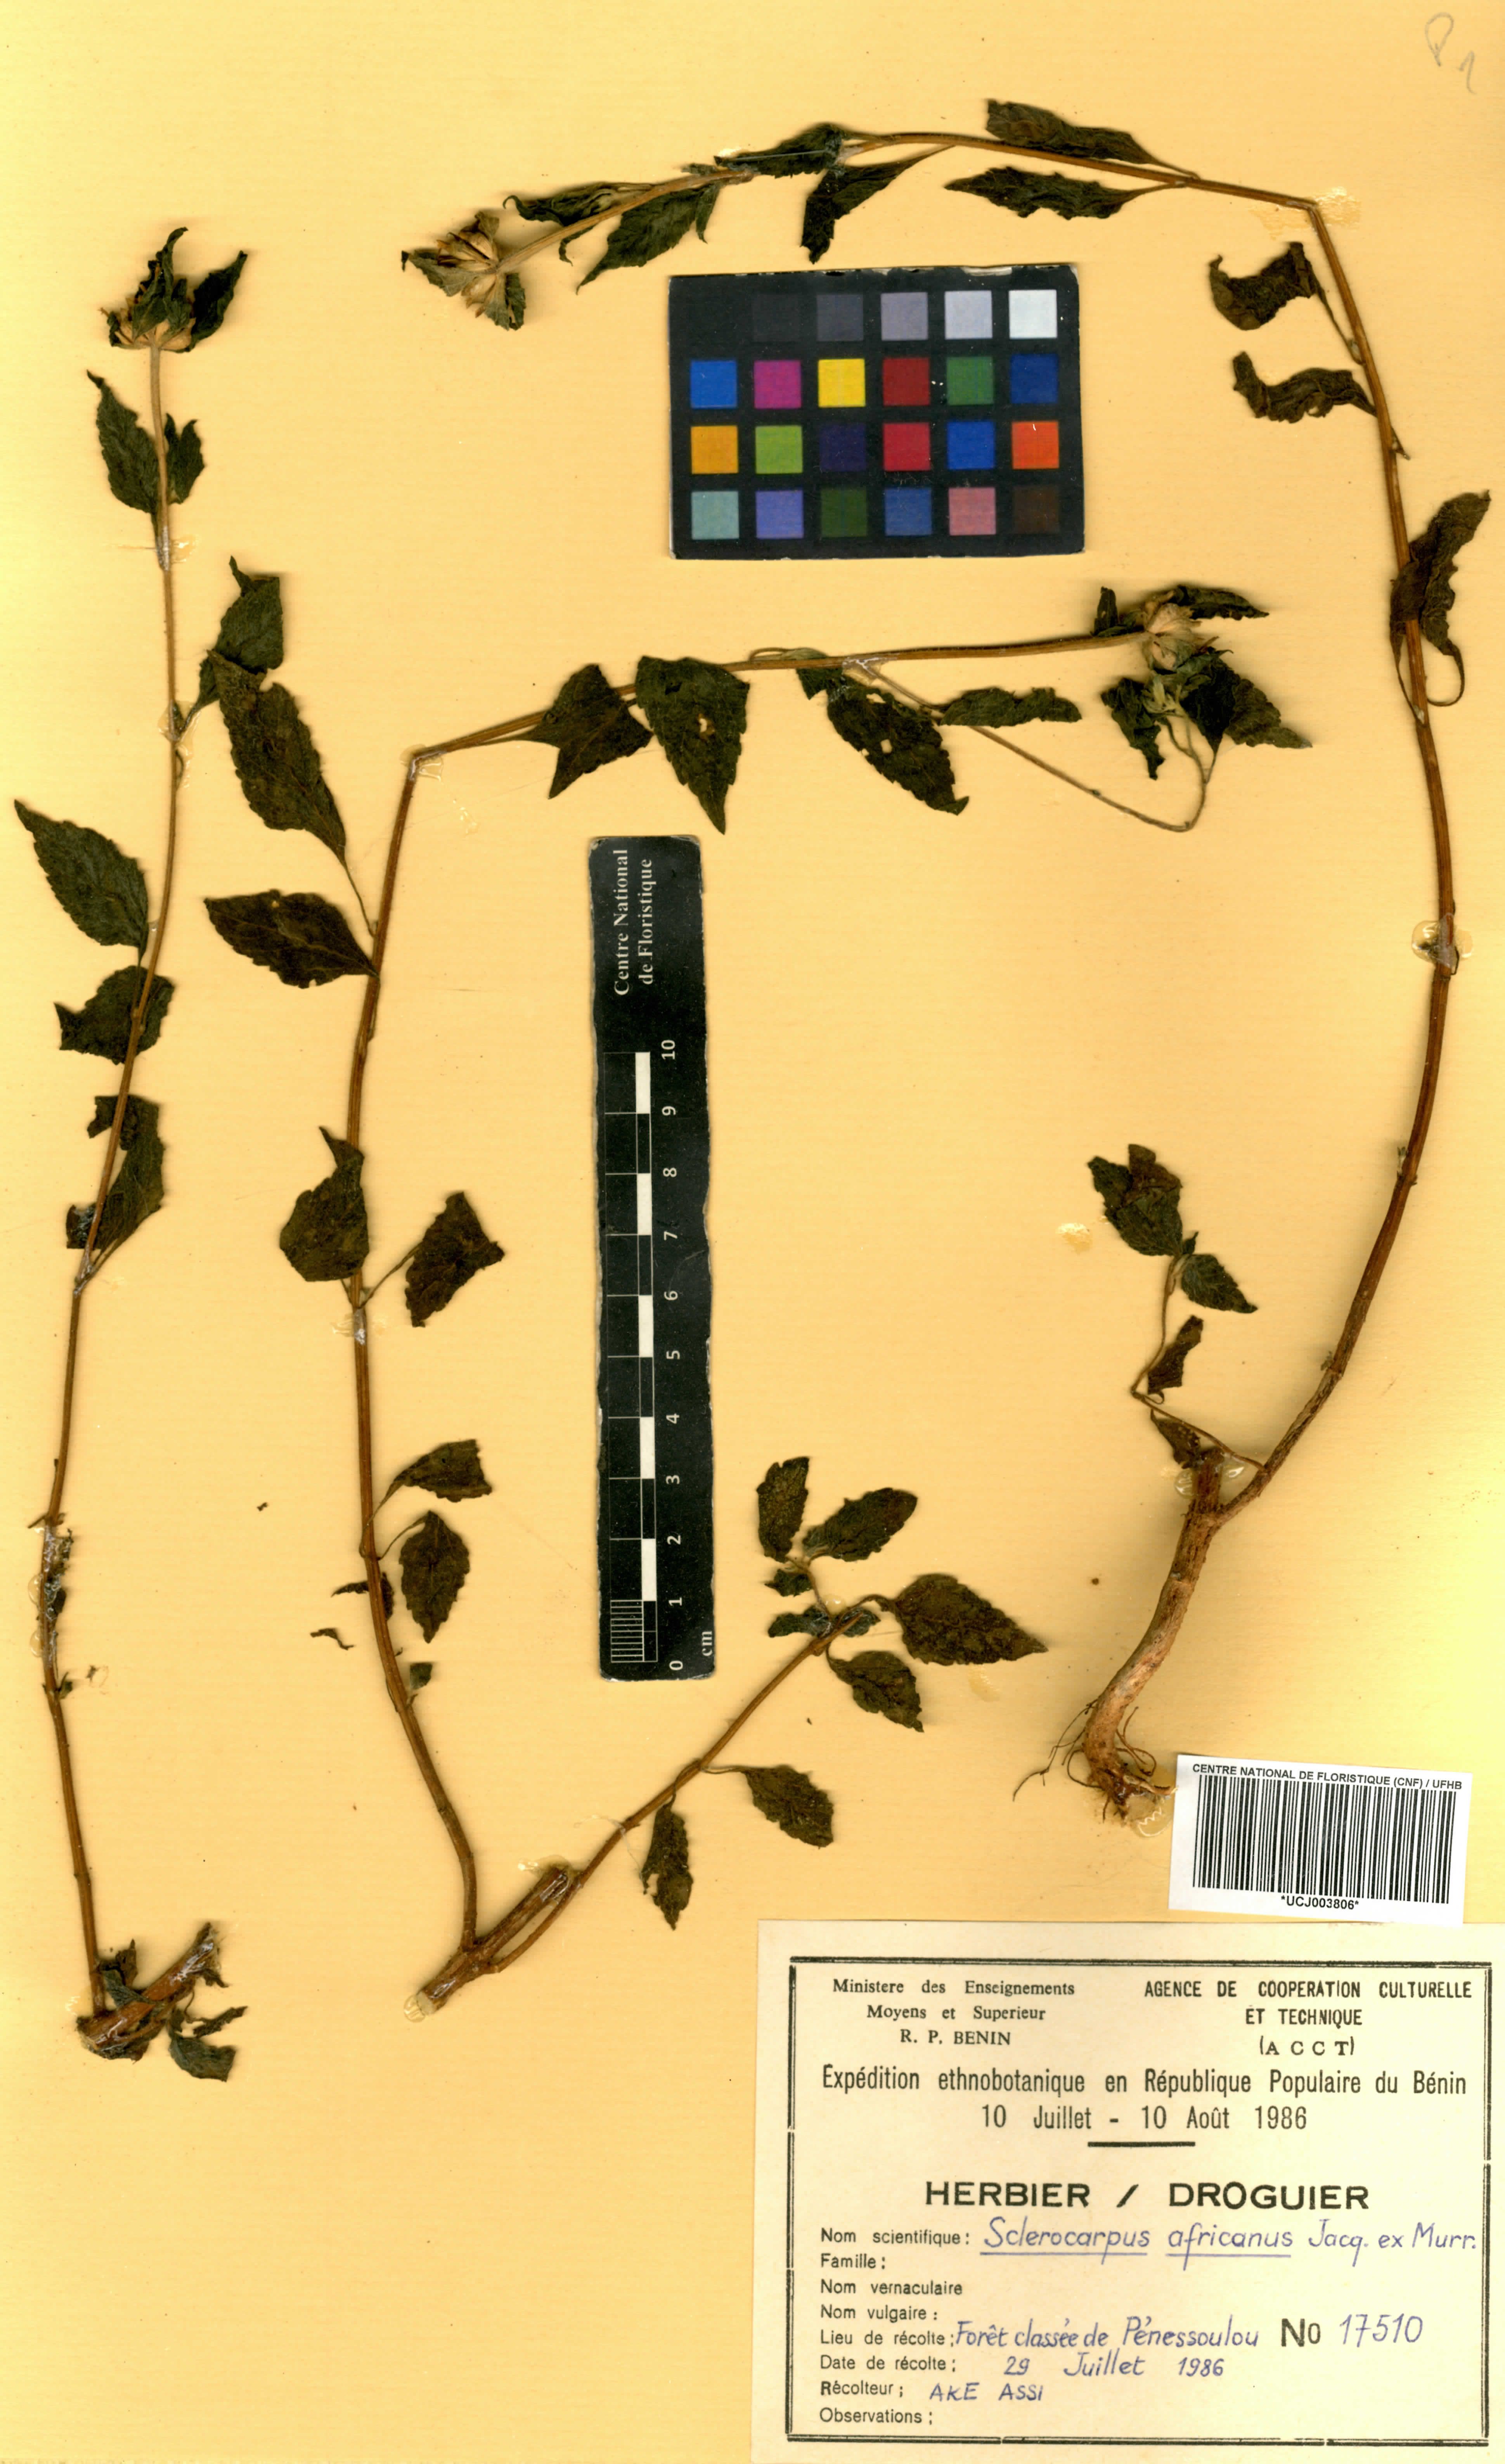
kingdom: Plantae
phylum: Tracheophyta
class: Magnoliopsida
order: Asterales
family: Asteraceae
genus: Sclerocarpus
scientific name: Sclerocarpus africanus
